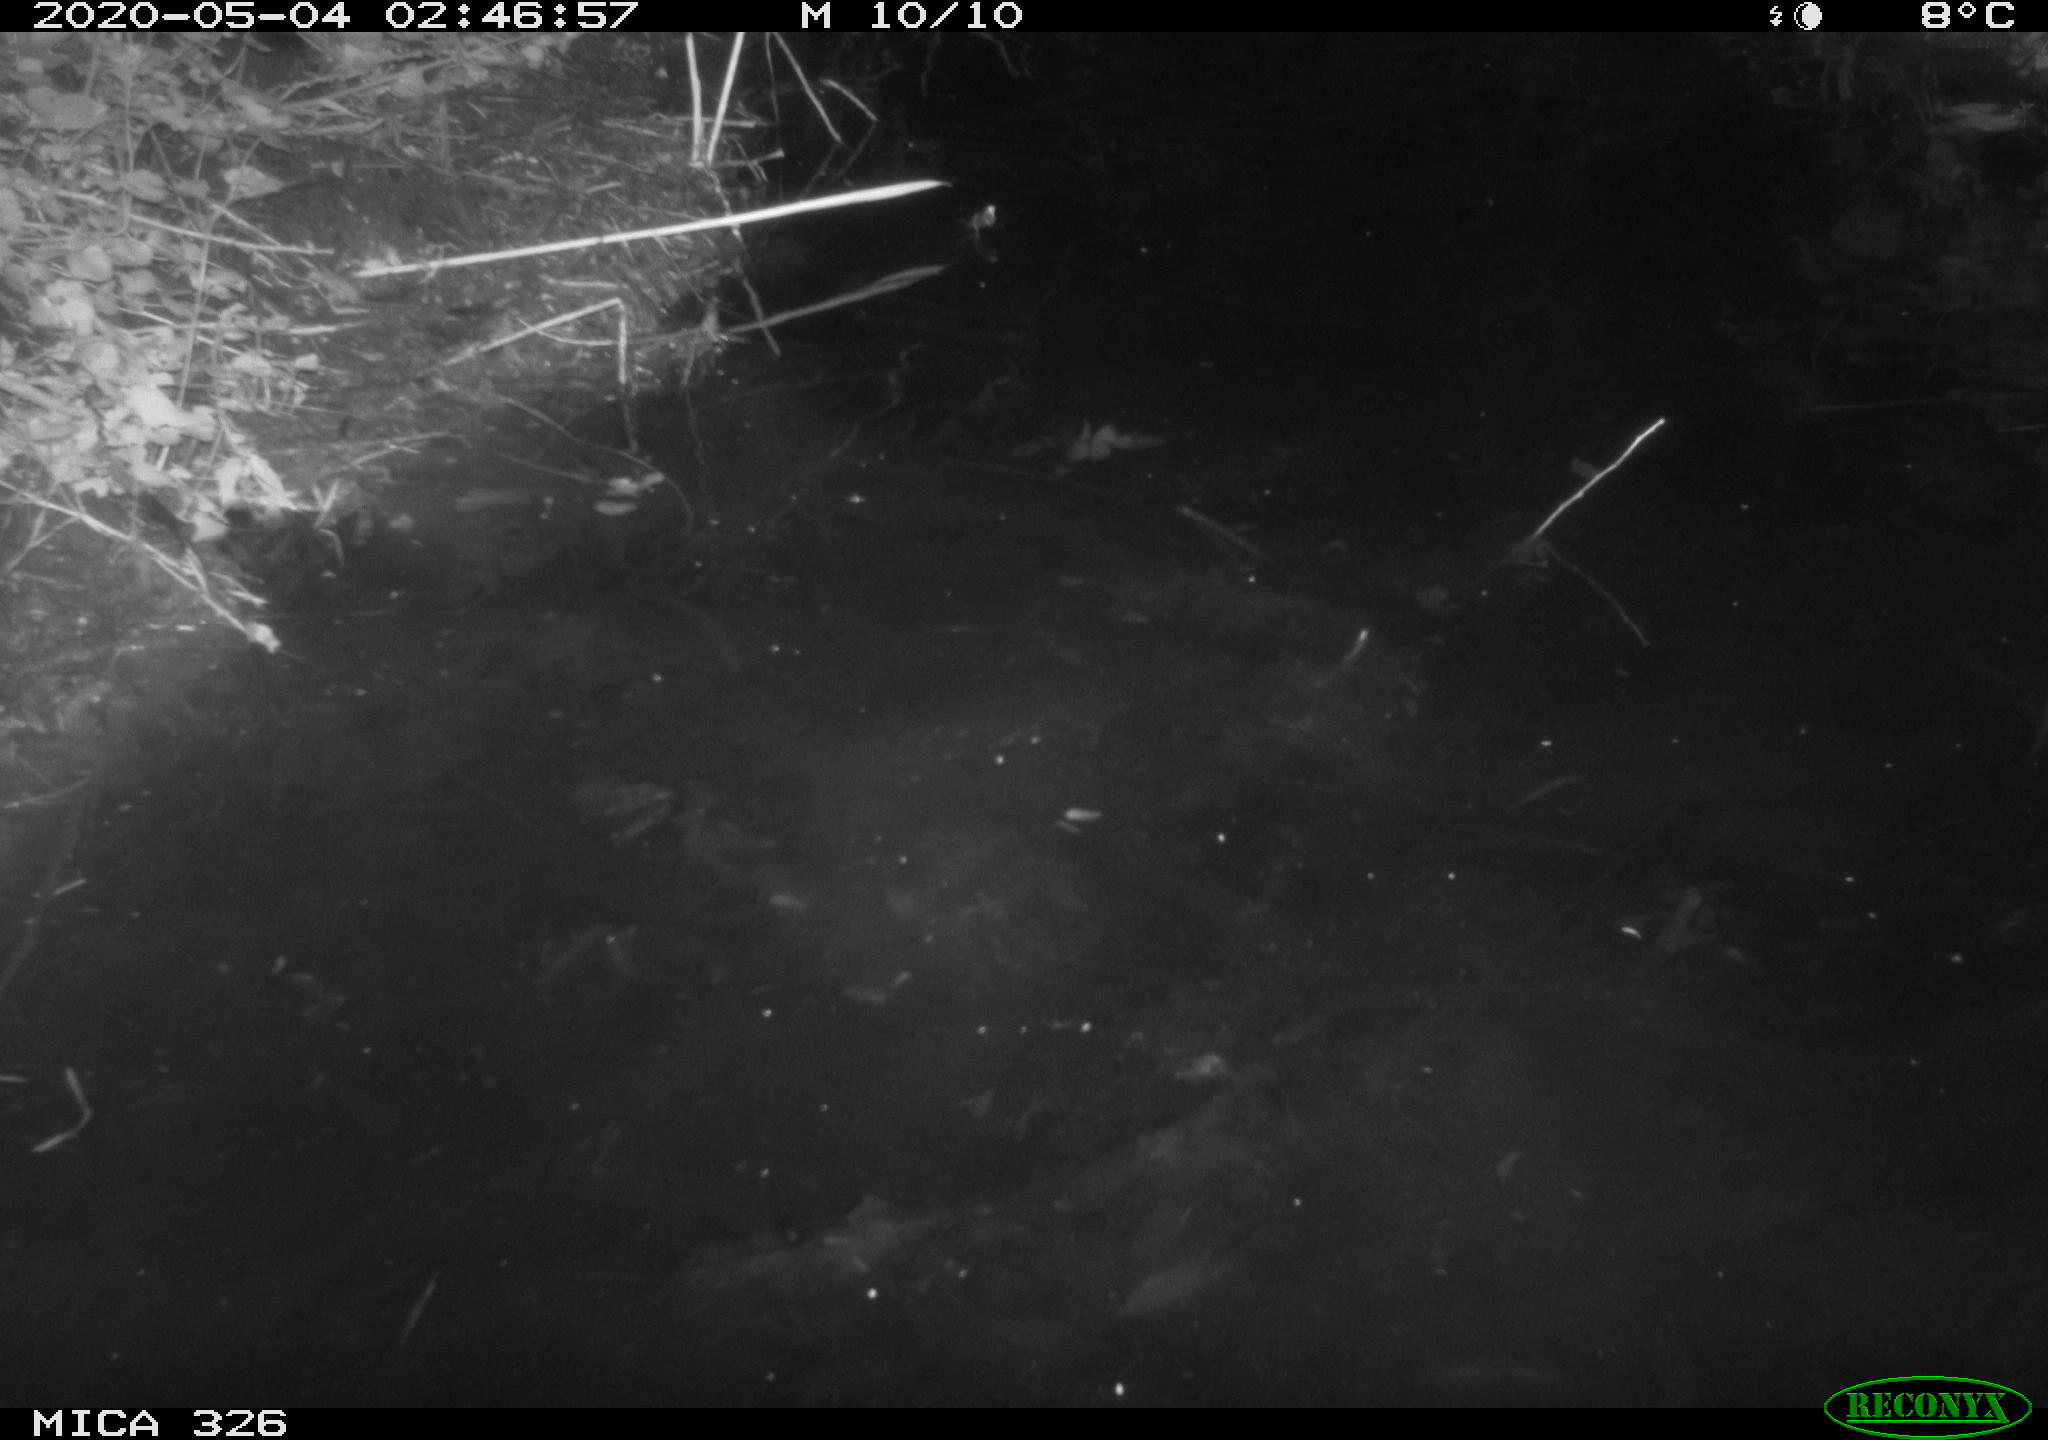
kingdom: Animalia
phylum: Chordata
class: Mammalia
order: Rodentia
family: Myocastoridae
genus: Myocastor
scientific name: Myocastor coypus
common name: Coypu
